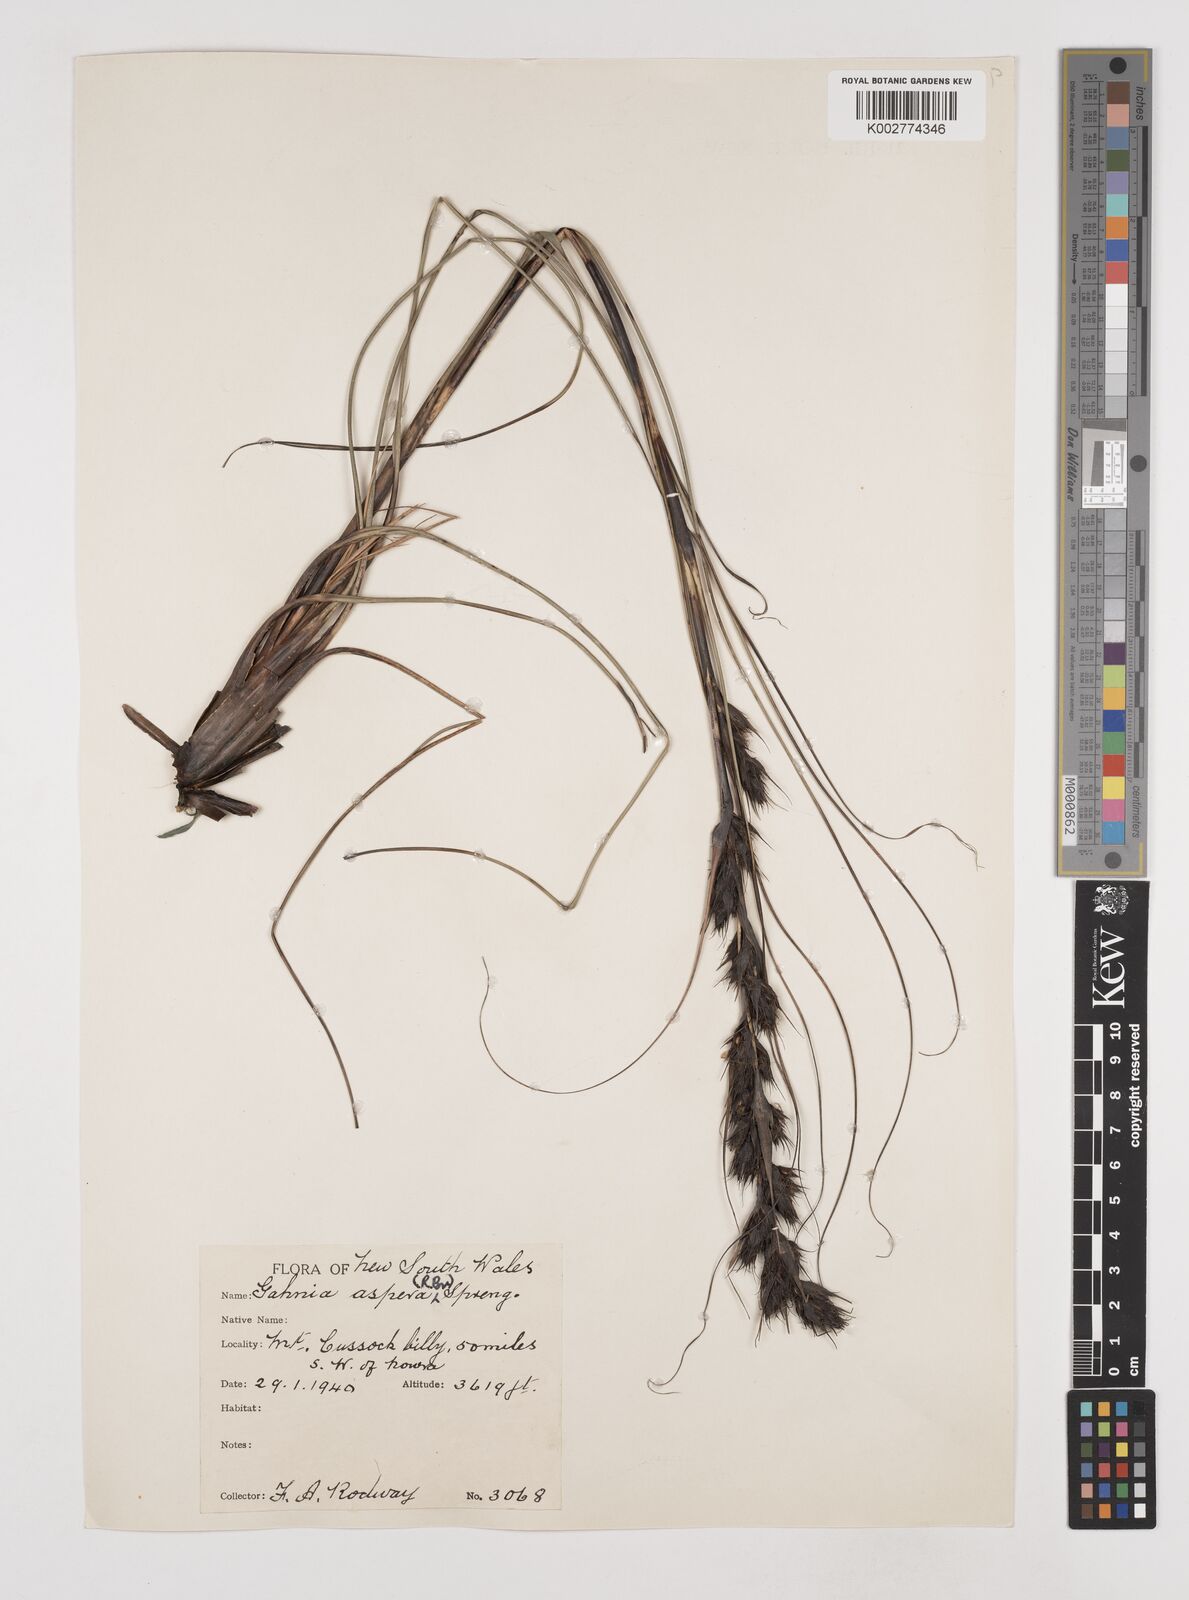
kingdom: Plantae
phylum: Tracheophyta
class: Liliopsida
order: Poales
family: Cyperaceae
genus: Gahnia
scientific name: Gahnia aspera
